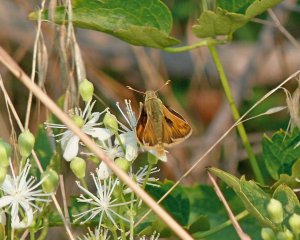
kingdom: Animalia
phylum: Arthropoda
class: Insecta
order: Lepidoptera
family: Hesperiidae
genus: Ochlodes
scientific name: Ochlodes sylvanoides
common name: Woodland Skipper
